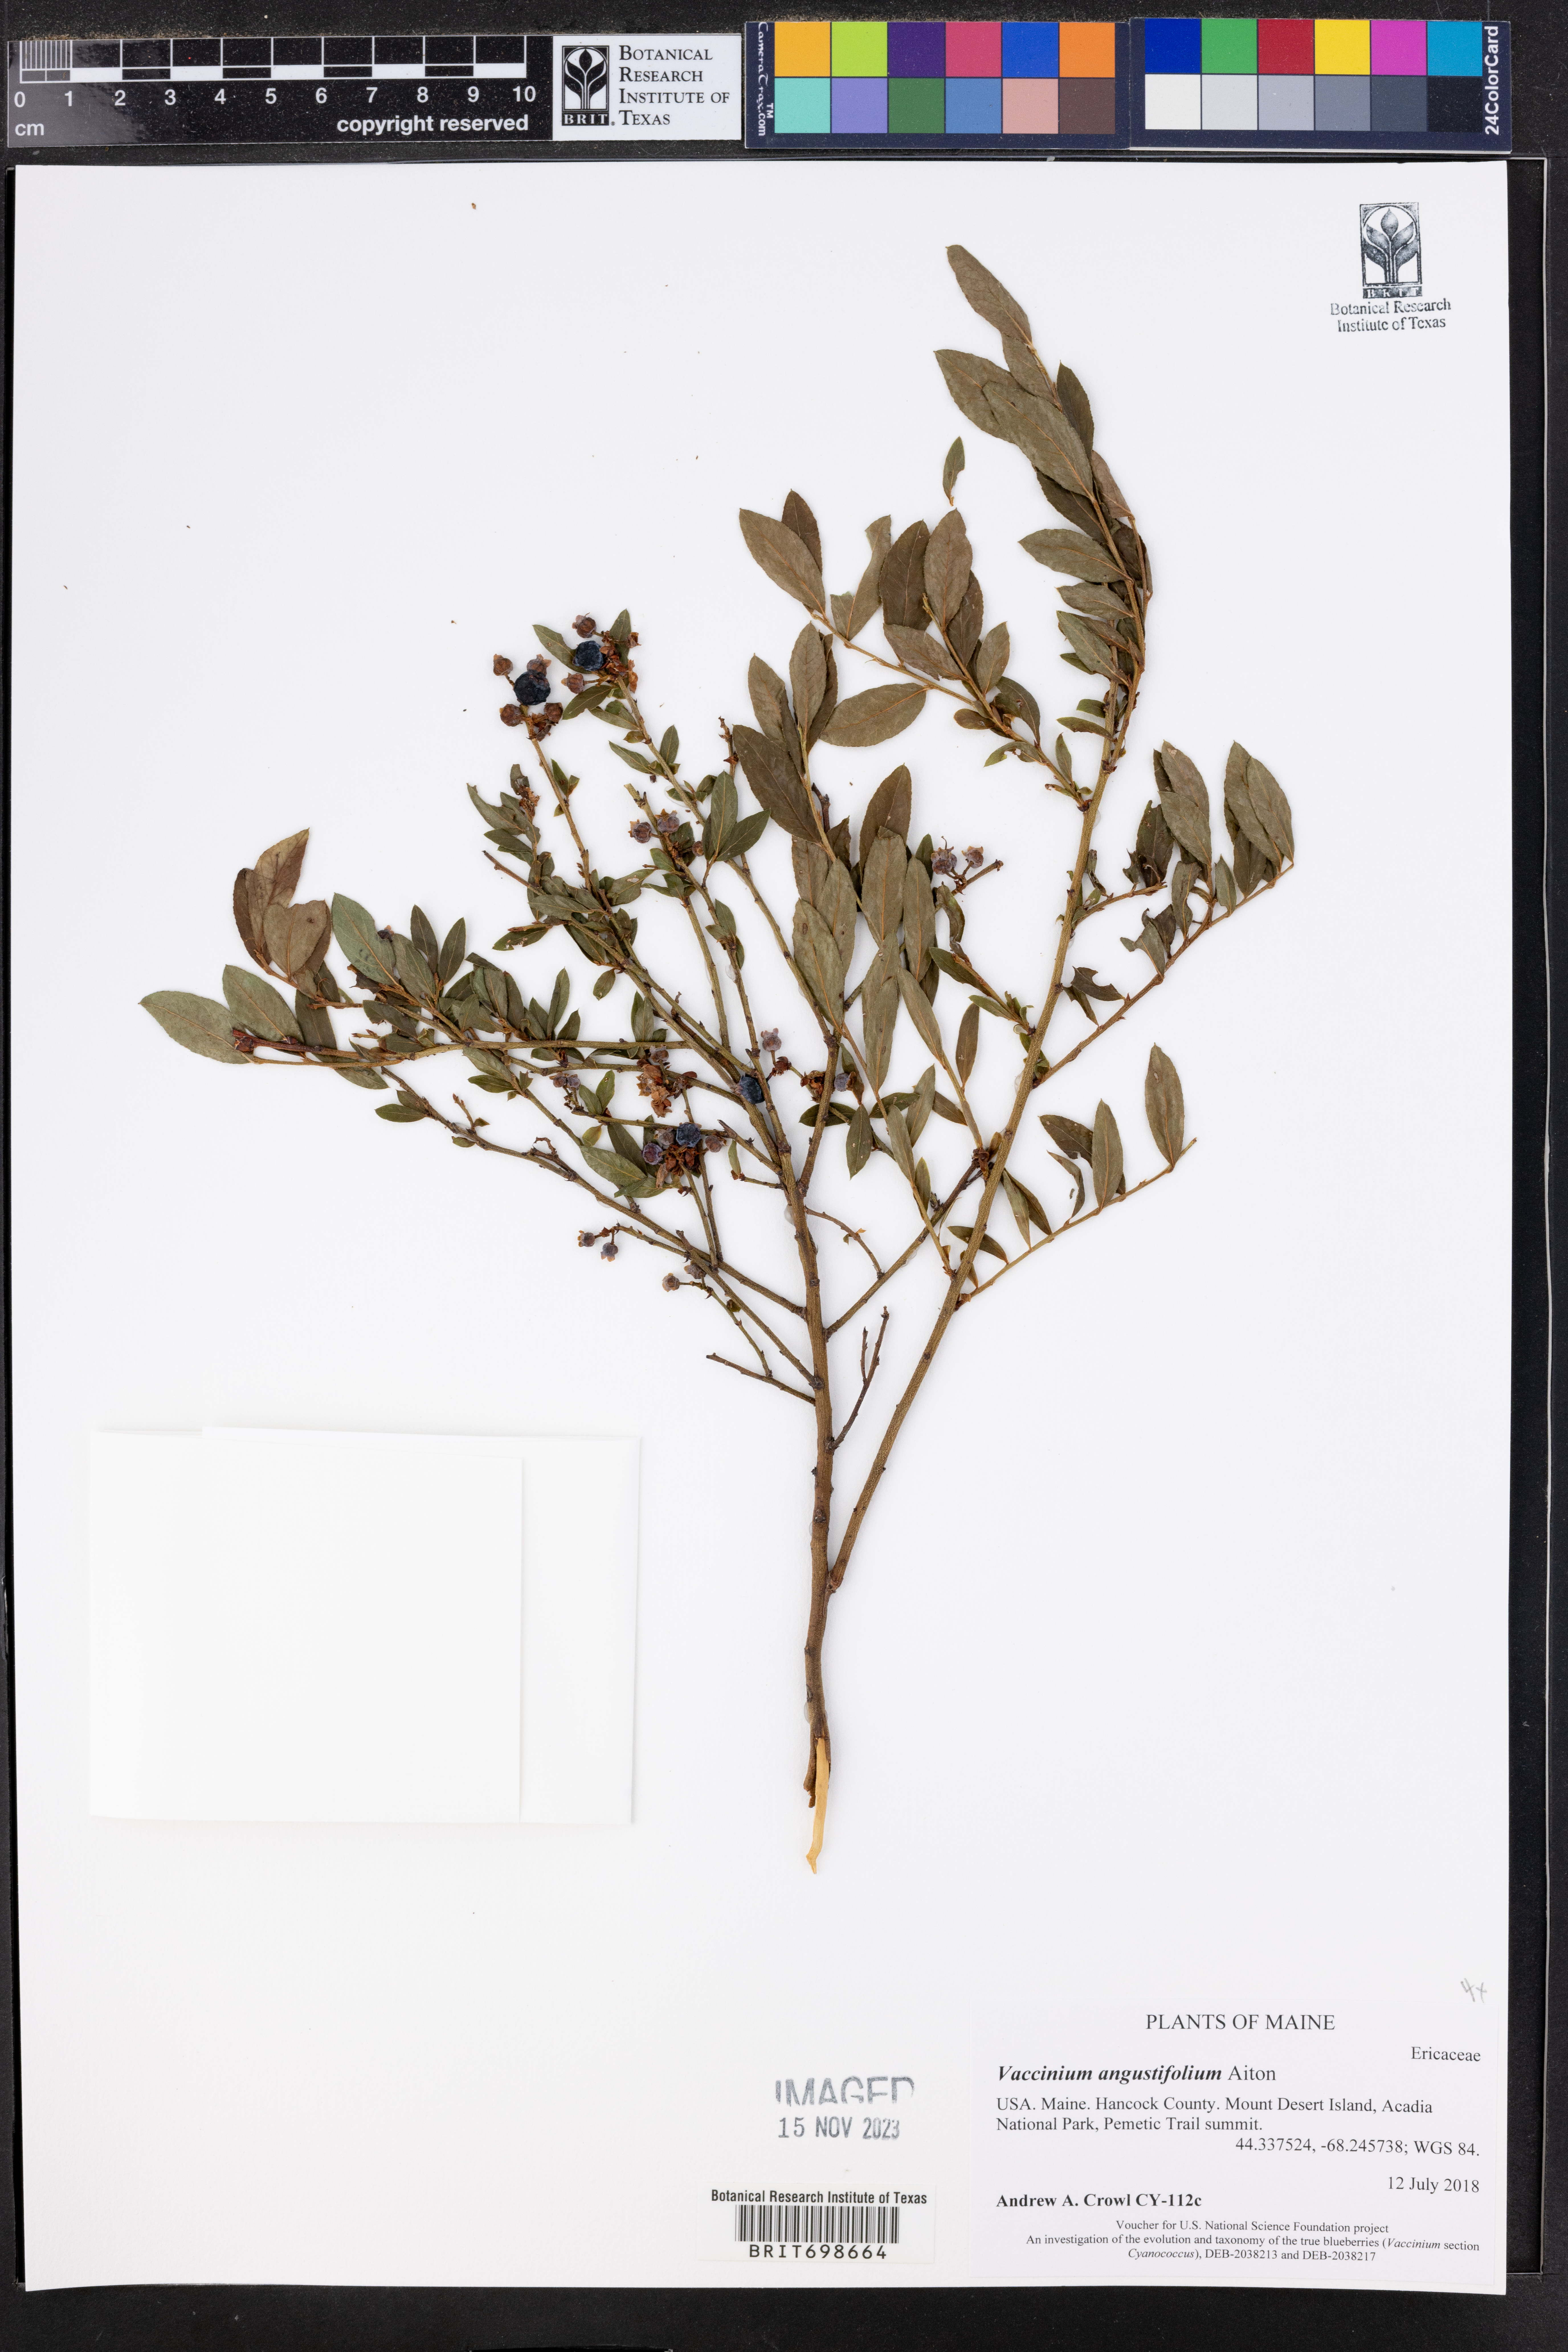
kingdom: Plantae
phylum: Tracheophyta
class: Magnoliopsida
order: Ericales
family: Ericaceae
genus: Vaccinium
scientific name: Vaccinium angustifolium
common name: Early lowbush blueberry
